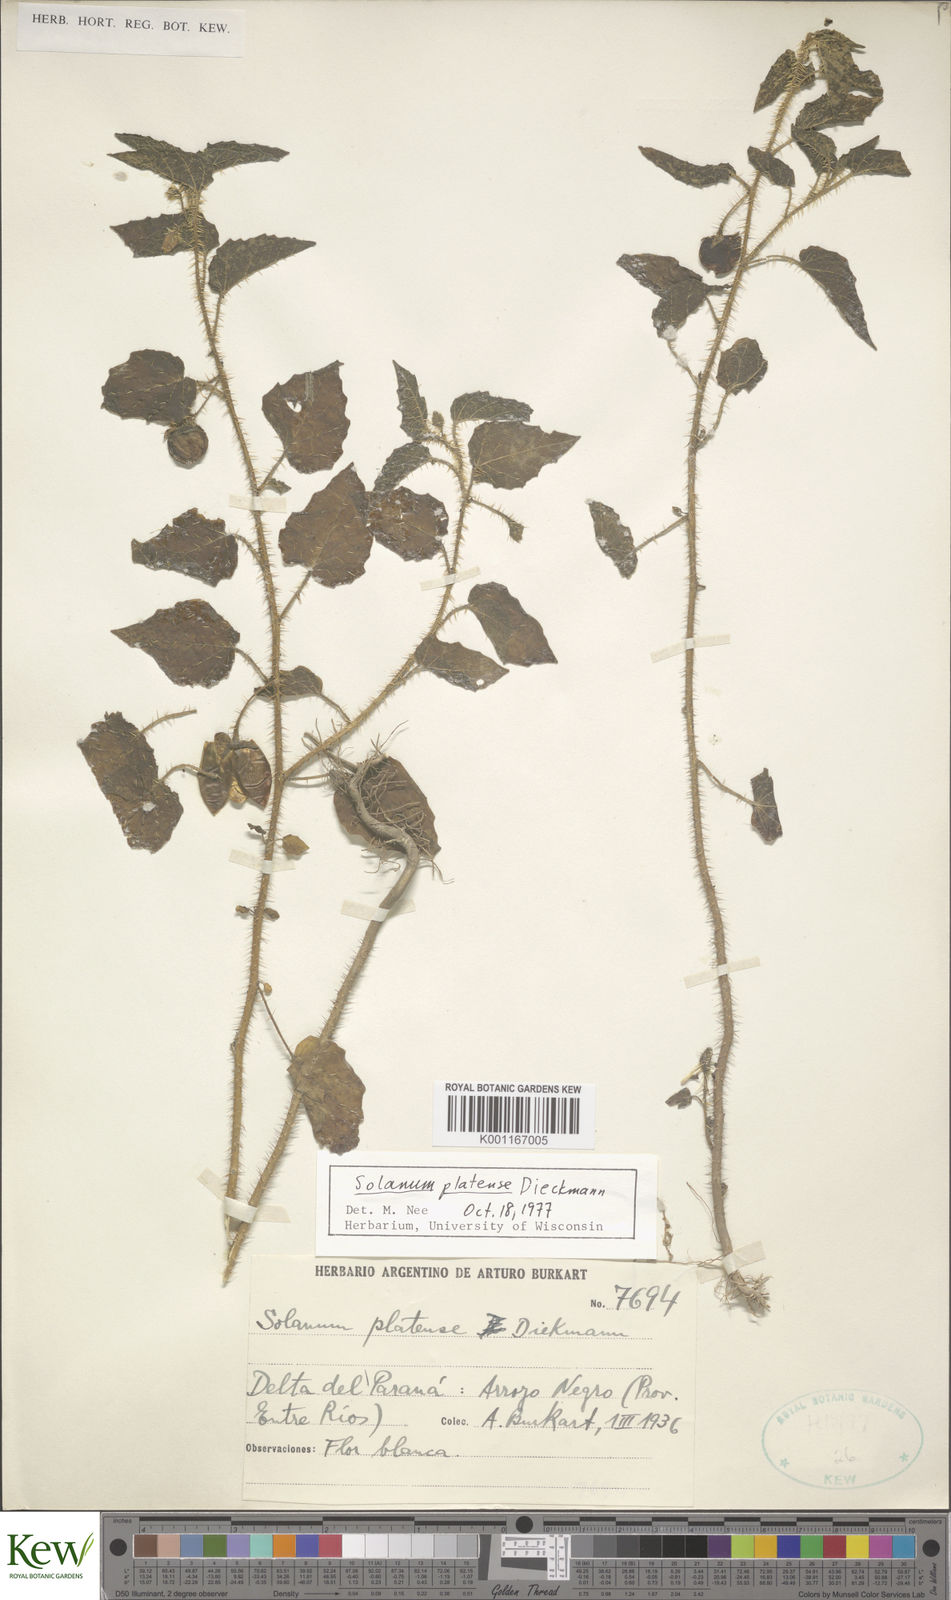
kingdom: Plantae
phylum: Tracheophyta
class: Magnoliopsida
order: Solanales
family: Solanaceae
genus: Solanum
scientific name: Solanum platense
